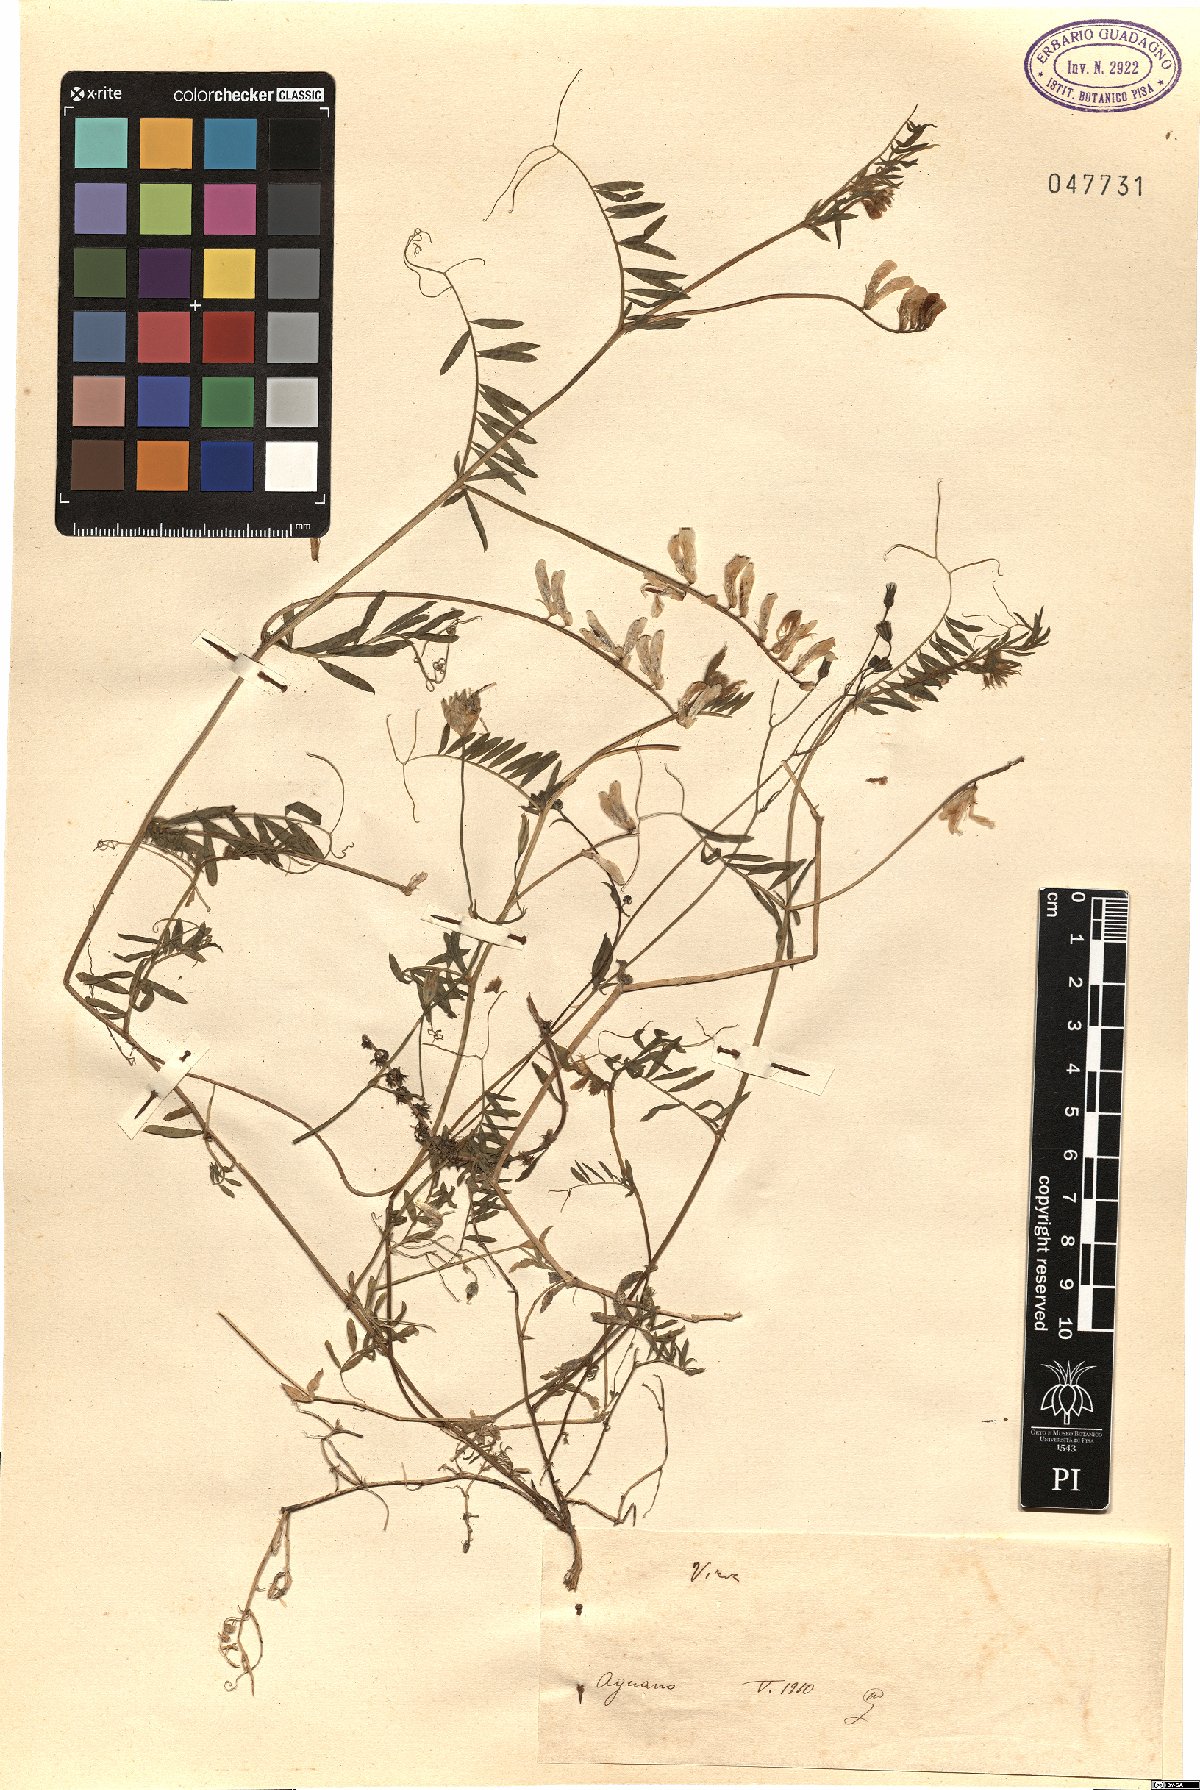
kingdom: Plantae
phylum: Tracheophyta
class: Magnoliopsida
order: Fabales
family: Fabaceae
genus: Vicia
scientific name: Vicia
